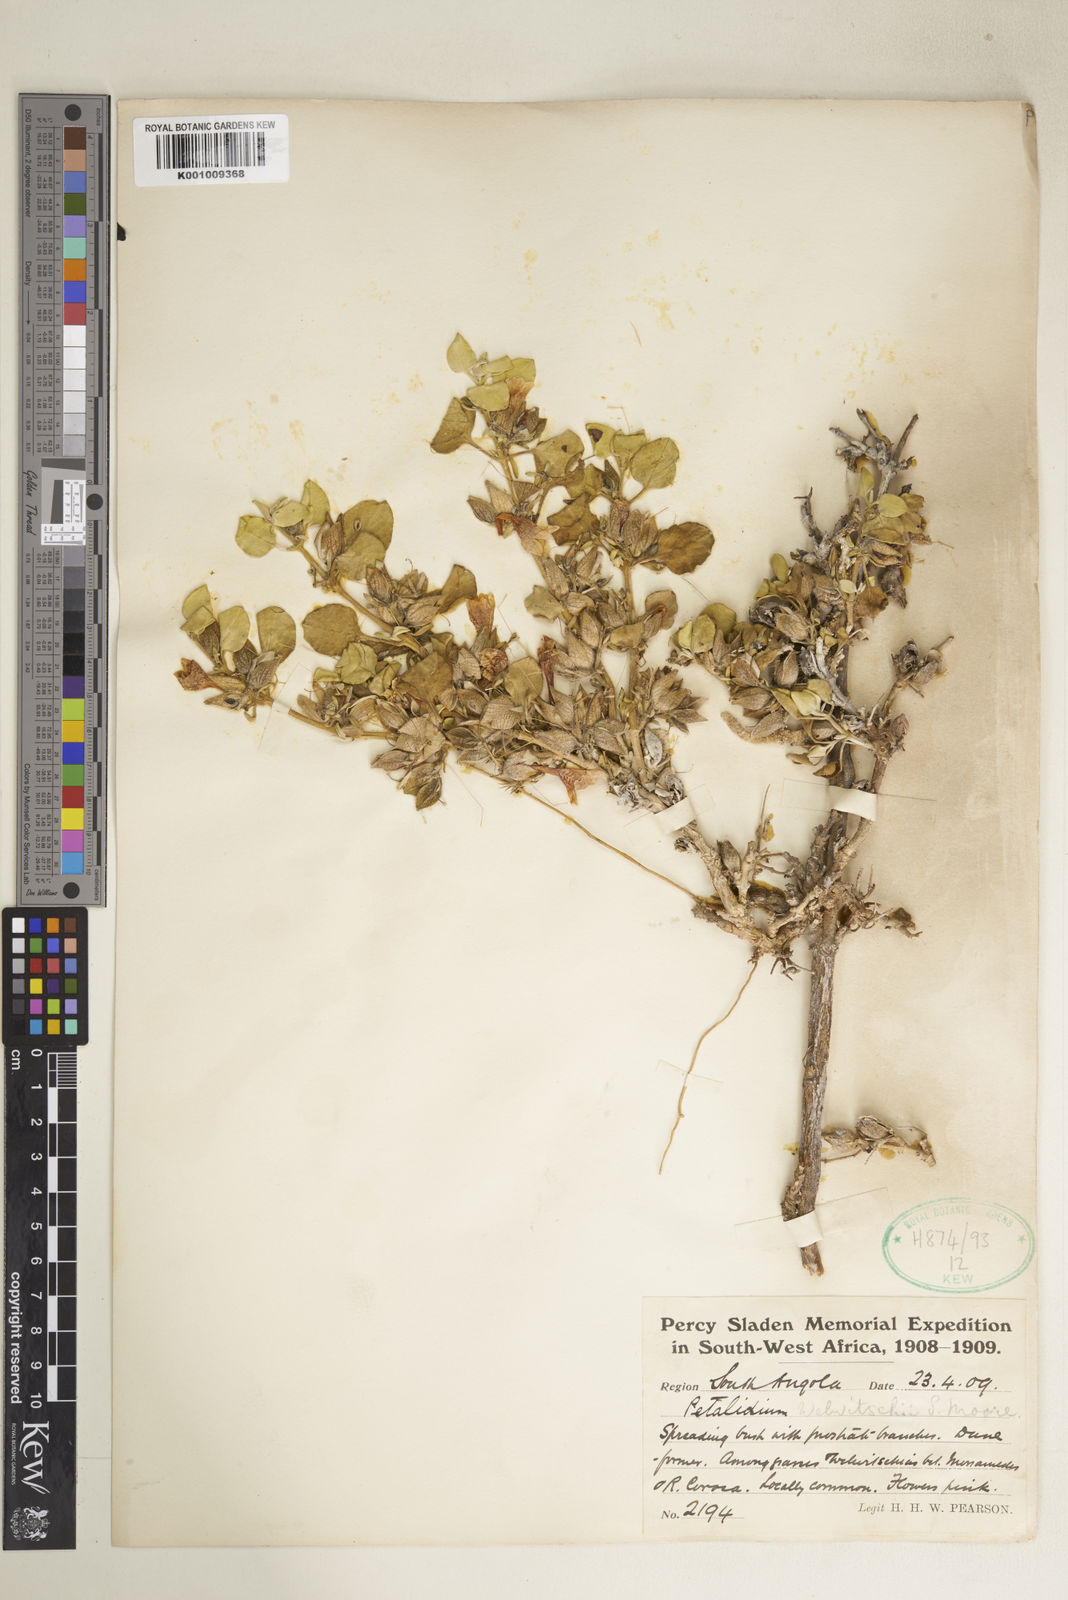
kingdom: Plantae
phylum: Tracheophyta
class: Magnoliopsida
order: Lamiales
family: Acanthaceae
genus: Petalidium
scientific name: Petalidium welwitschii
